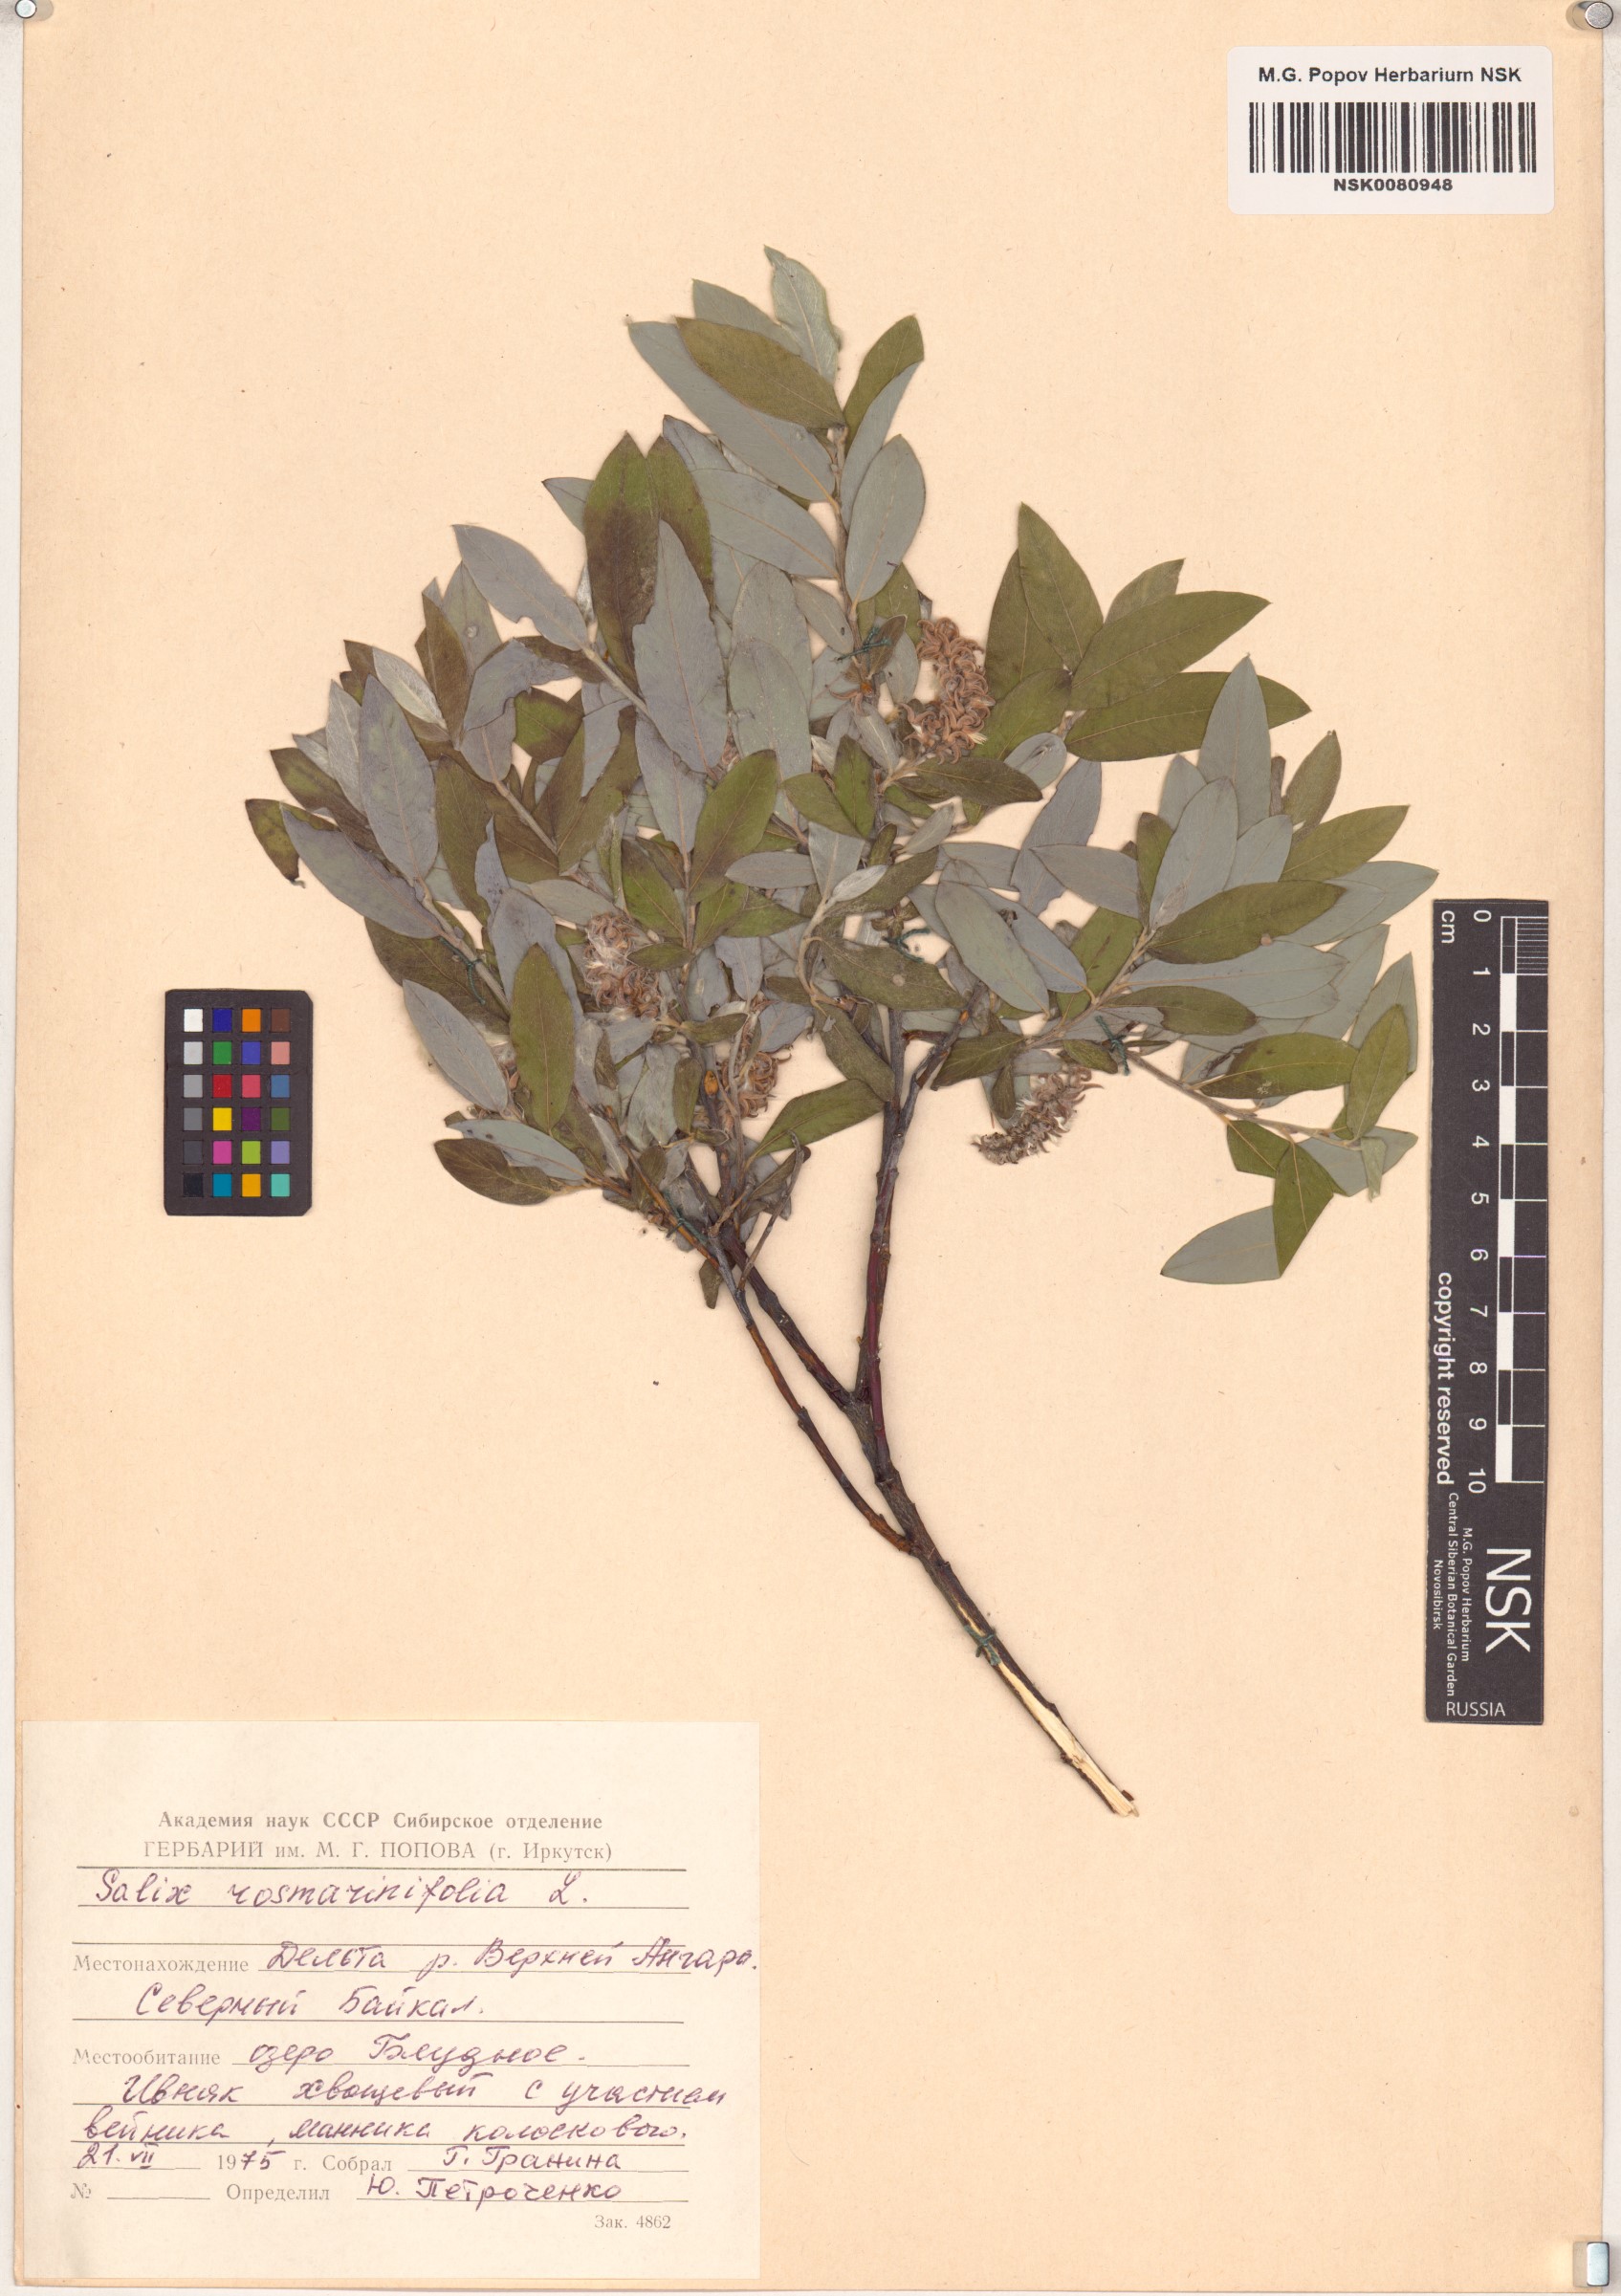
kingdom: Plantae
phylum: Tracheophyta
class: Magnoliopsida
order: Malpighiales
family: Salicaceae
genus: Salix
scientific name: Salix rosmarinifolia
